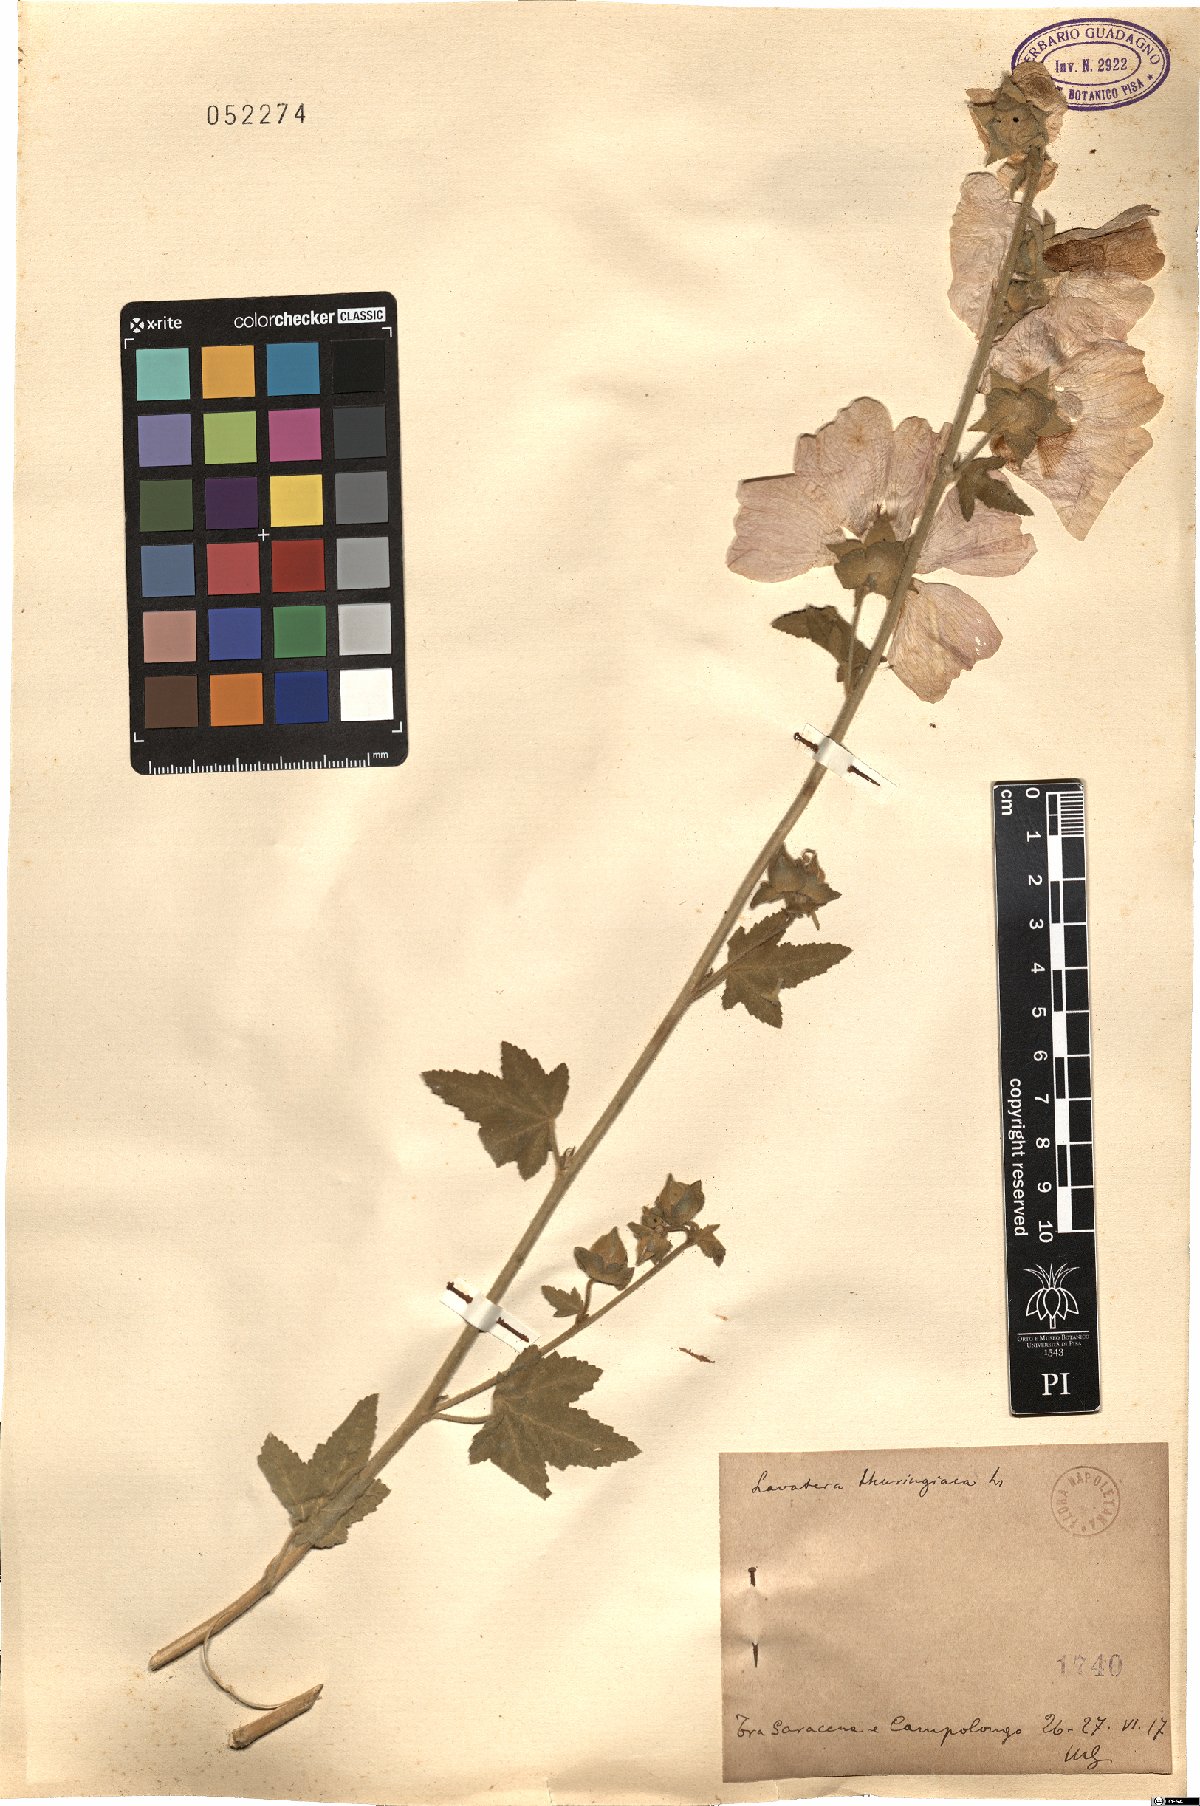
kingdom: Plantae
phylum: Tracheophyta
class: Magnoliopsida
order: Malvales
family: Malvaceae
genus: Malva
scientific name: Malva thuringiaca
